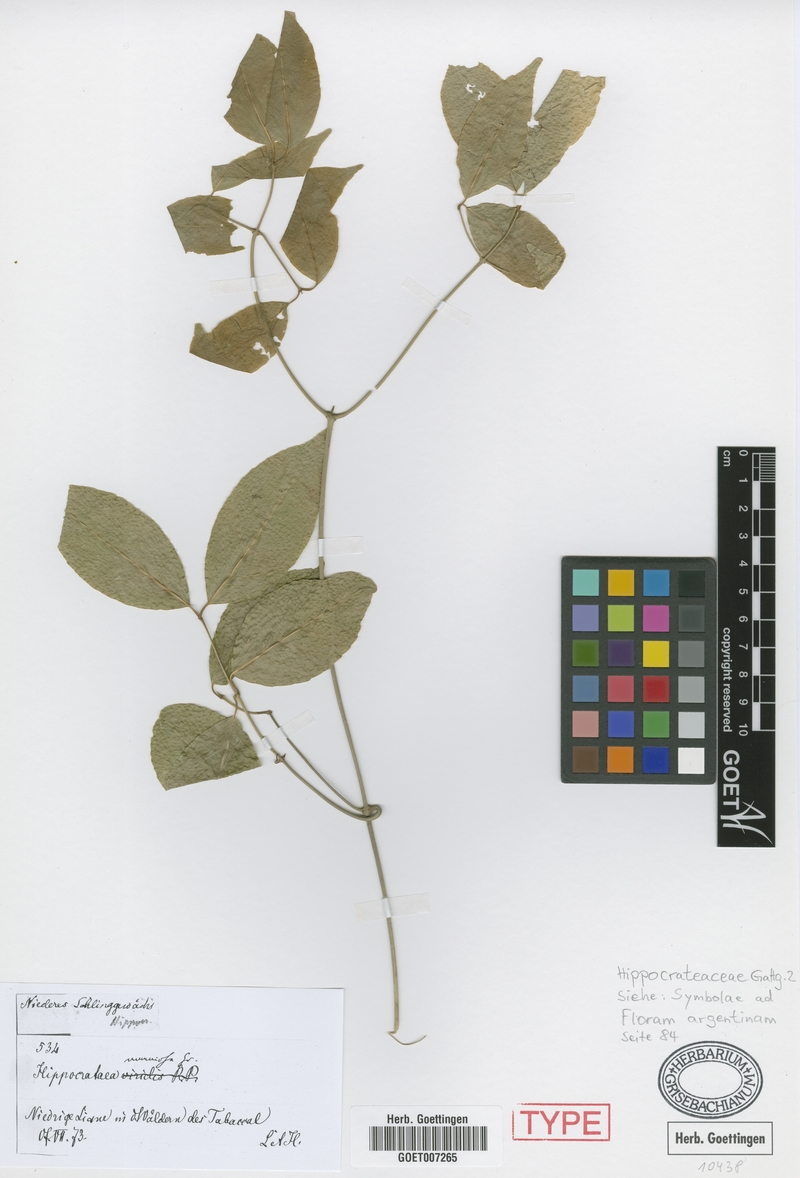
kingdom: Plantae
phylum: Tracheophyta
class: Magnoliopsida
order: Celastrales
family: Celastraceae
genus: Pristimera
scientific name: Pristimera celastroides
